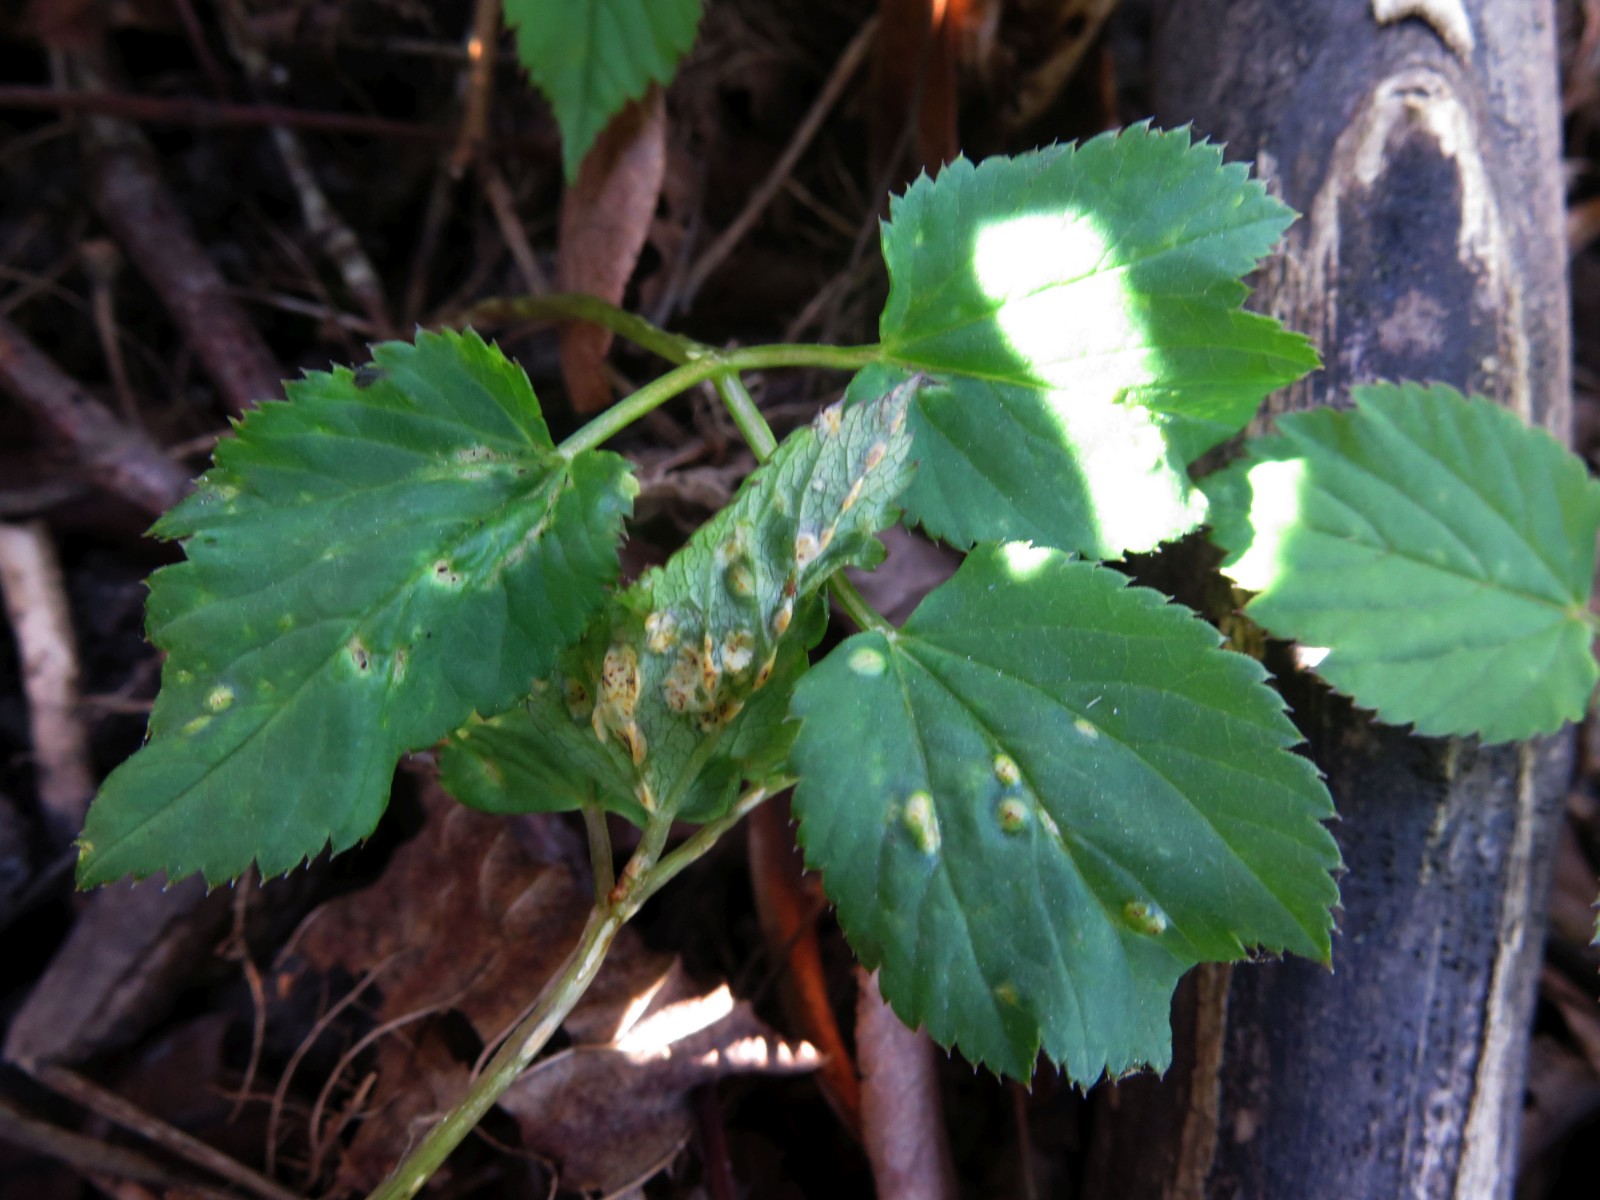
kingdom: Fungi
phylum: Basidiomycota
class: Pucciniomycetes
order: Pucciniales
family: Pucciniaceae
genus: Puccinia
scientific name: Puccinia
